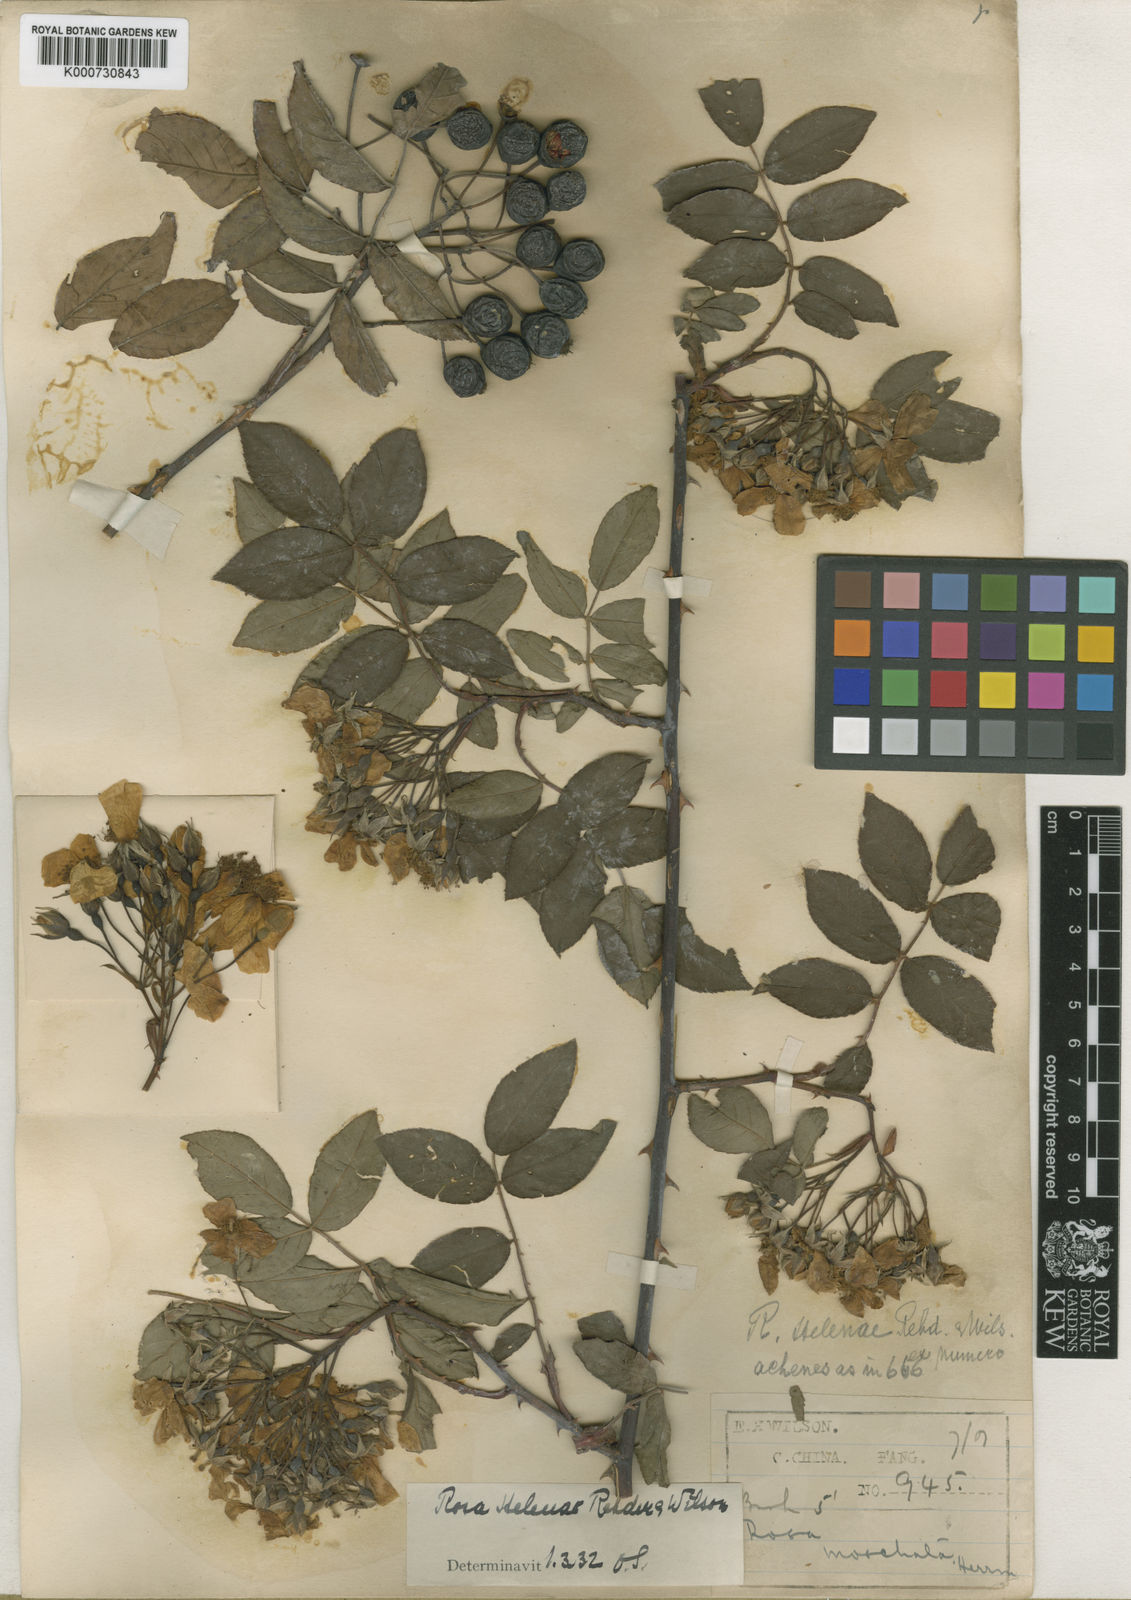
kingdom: Plantae
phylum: Tracheophyta
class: Magnoliopsida
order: Rosales
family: Rosaceae
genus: Rosa
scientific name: Rosa helenae
